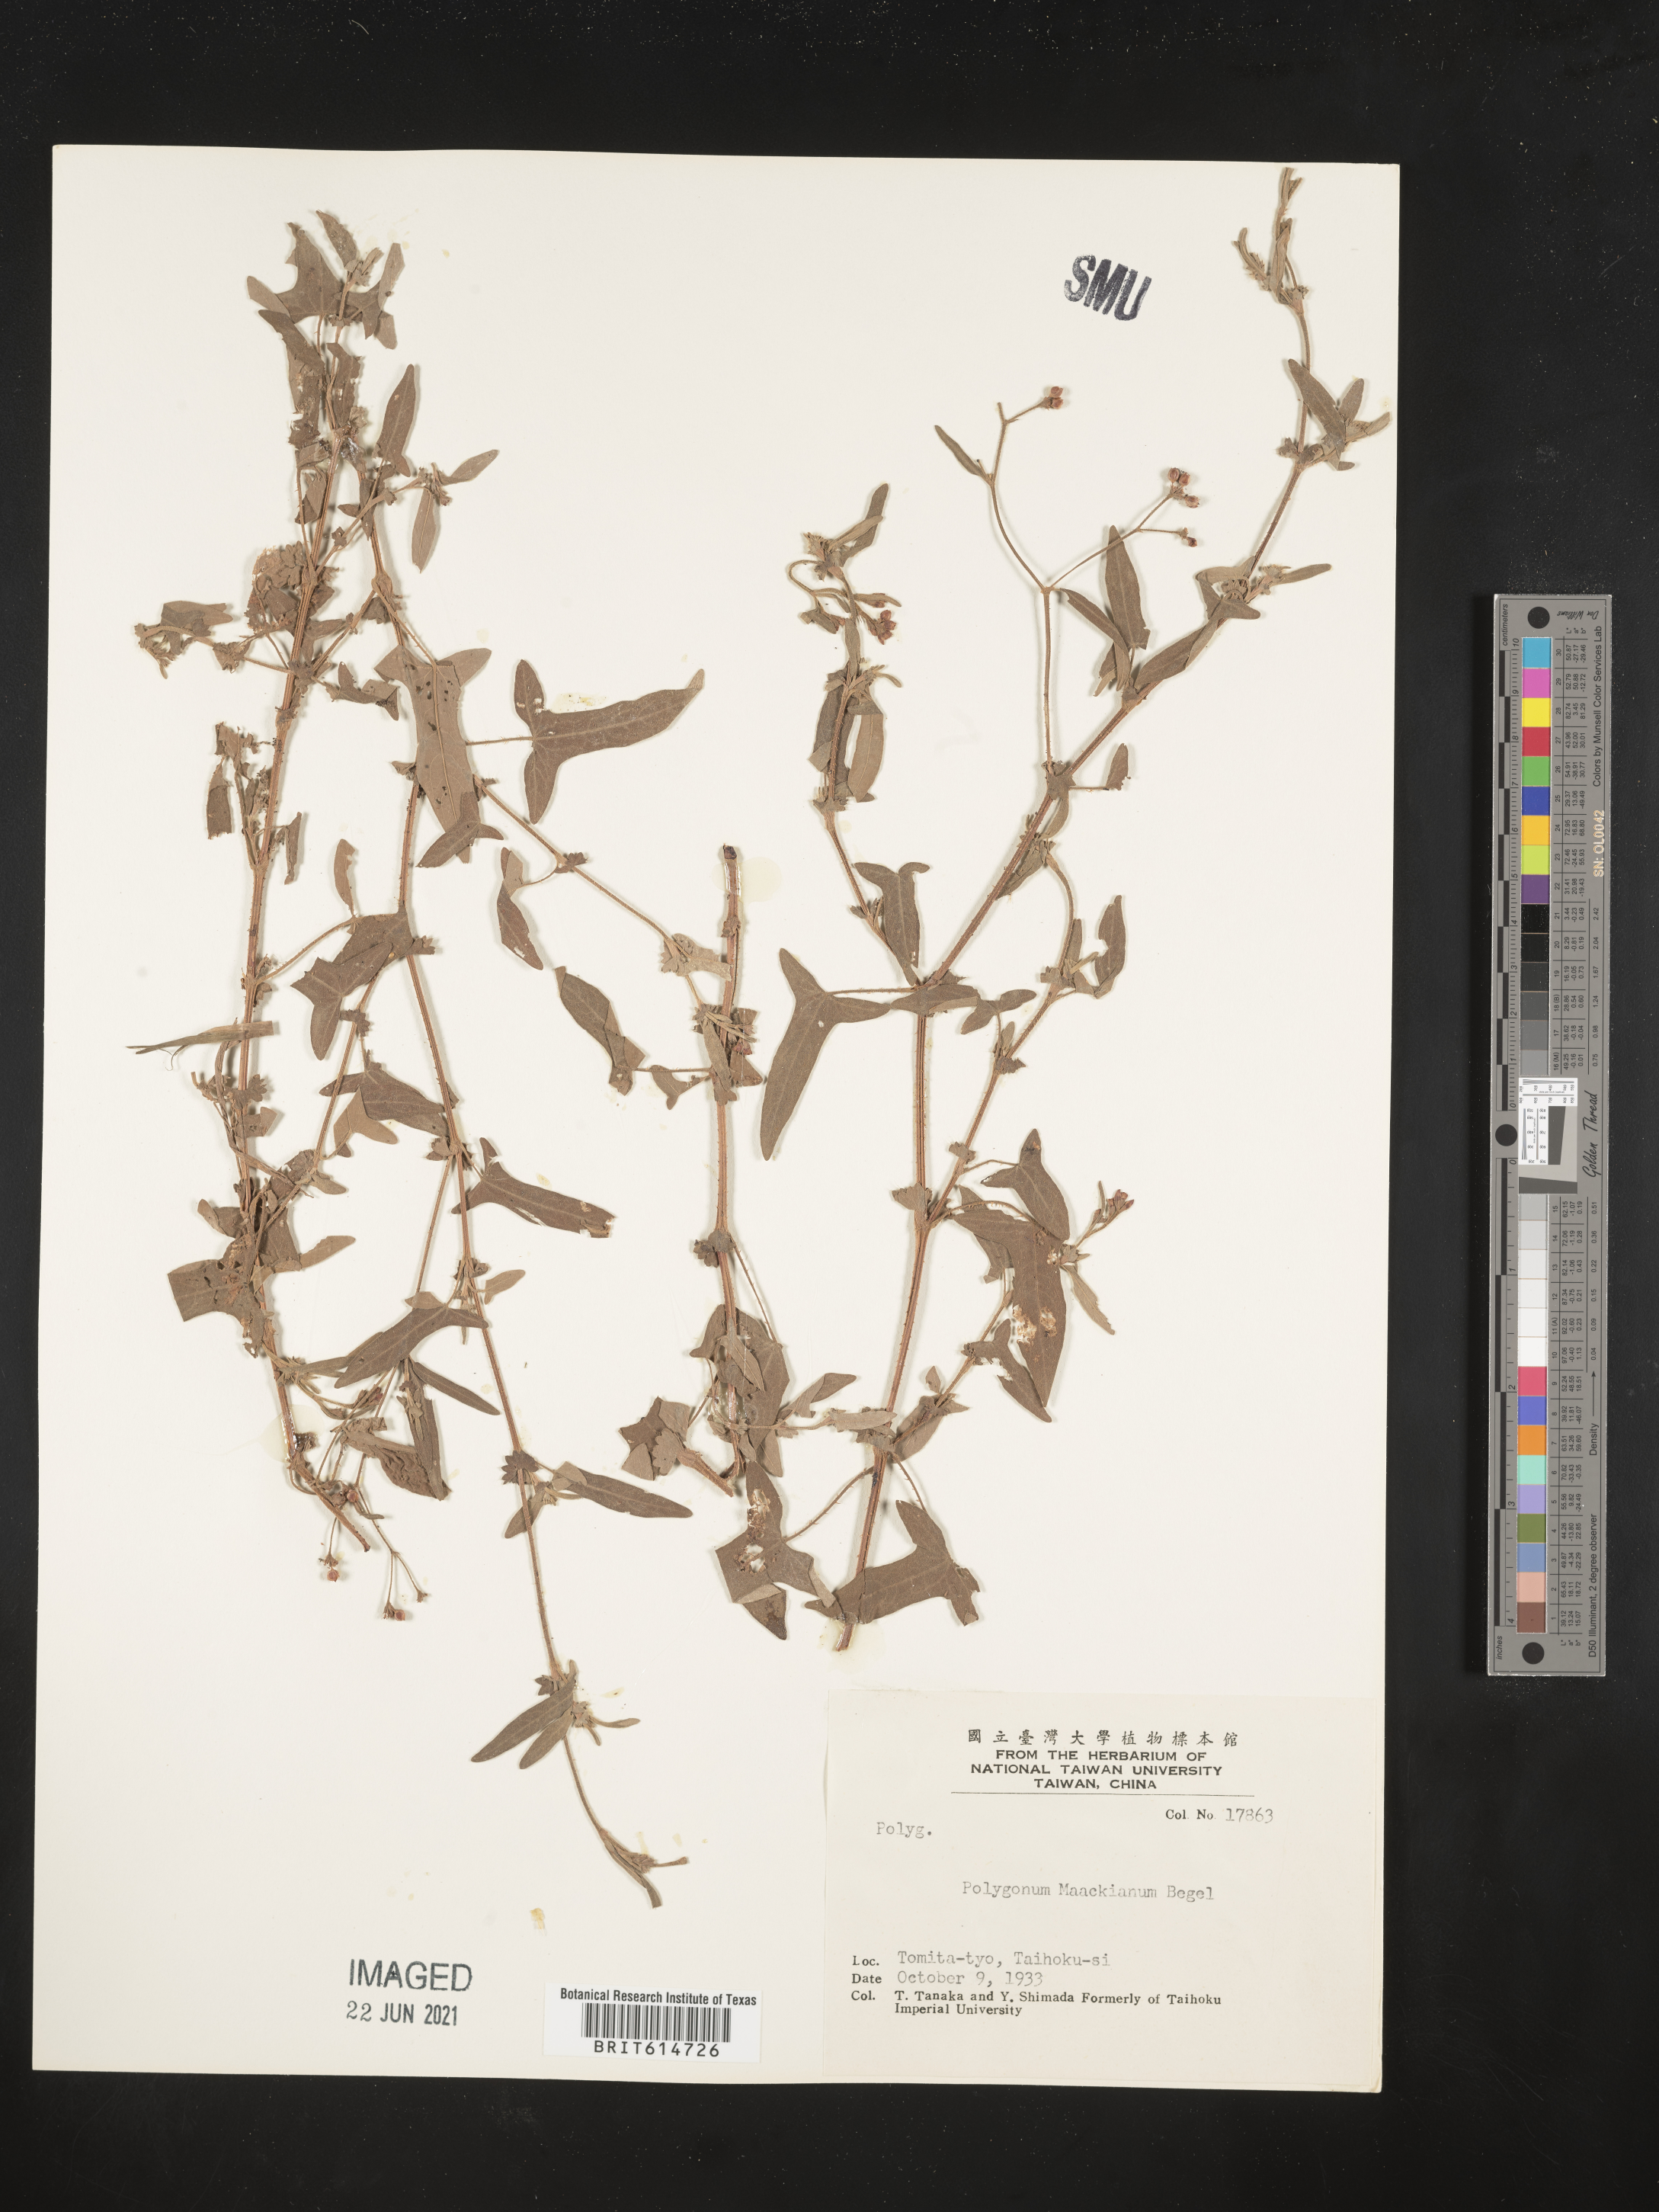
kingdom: Plantae
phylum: Tracheophyta
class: Magnoliopsida
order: Caryophyllales
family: Polygonaceae
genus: Persicaria
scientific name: Persicaria maackiana
